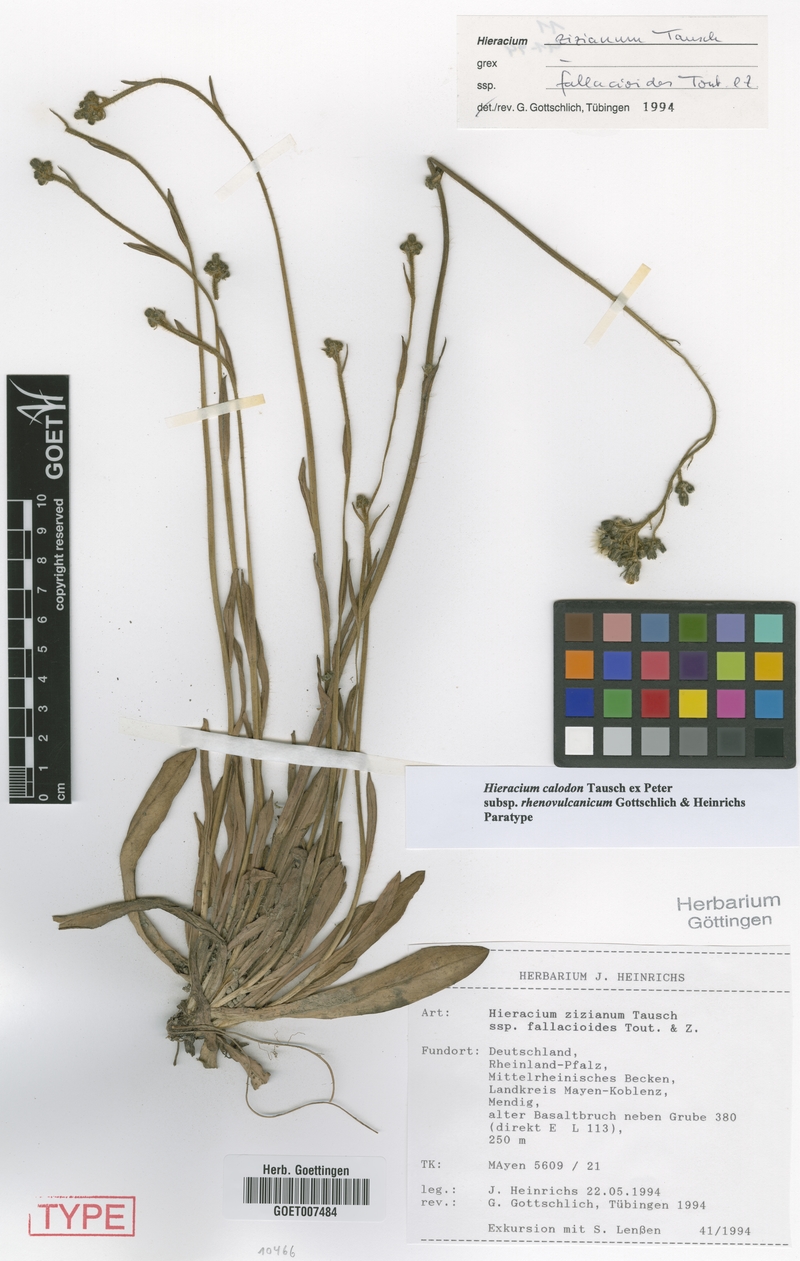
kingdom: Plantae
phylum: Tracheophyta
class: Magnoliopsida
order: Asterales
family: Asteraceae
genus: Pilosella
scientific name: Pilosella calodon
